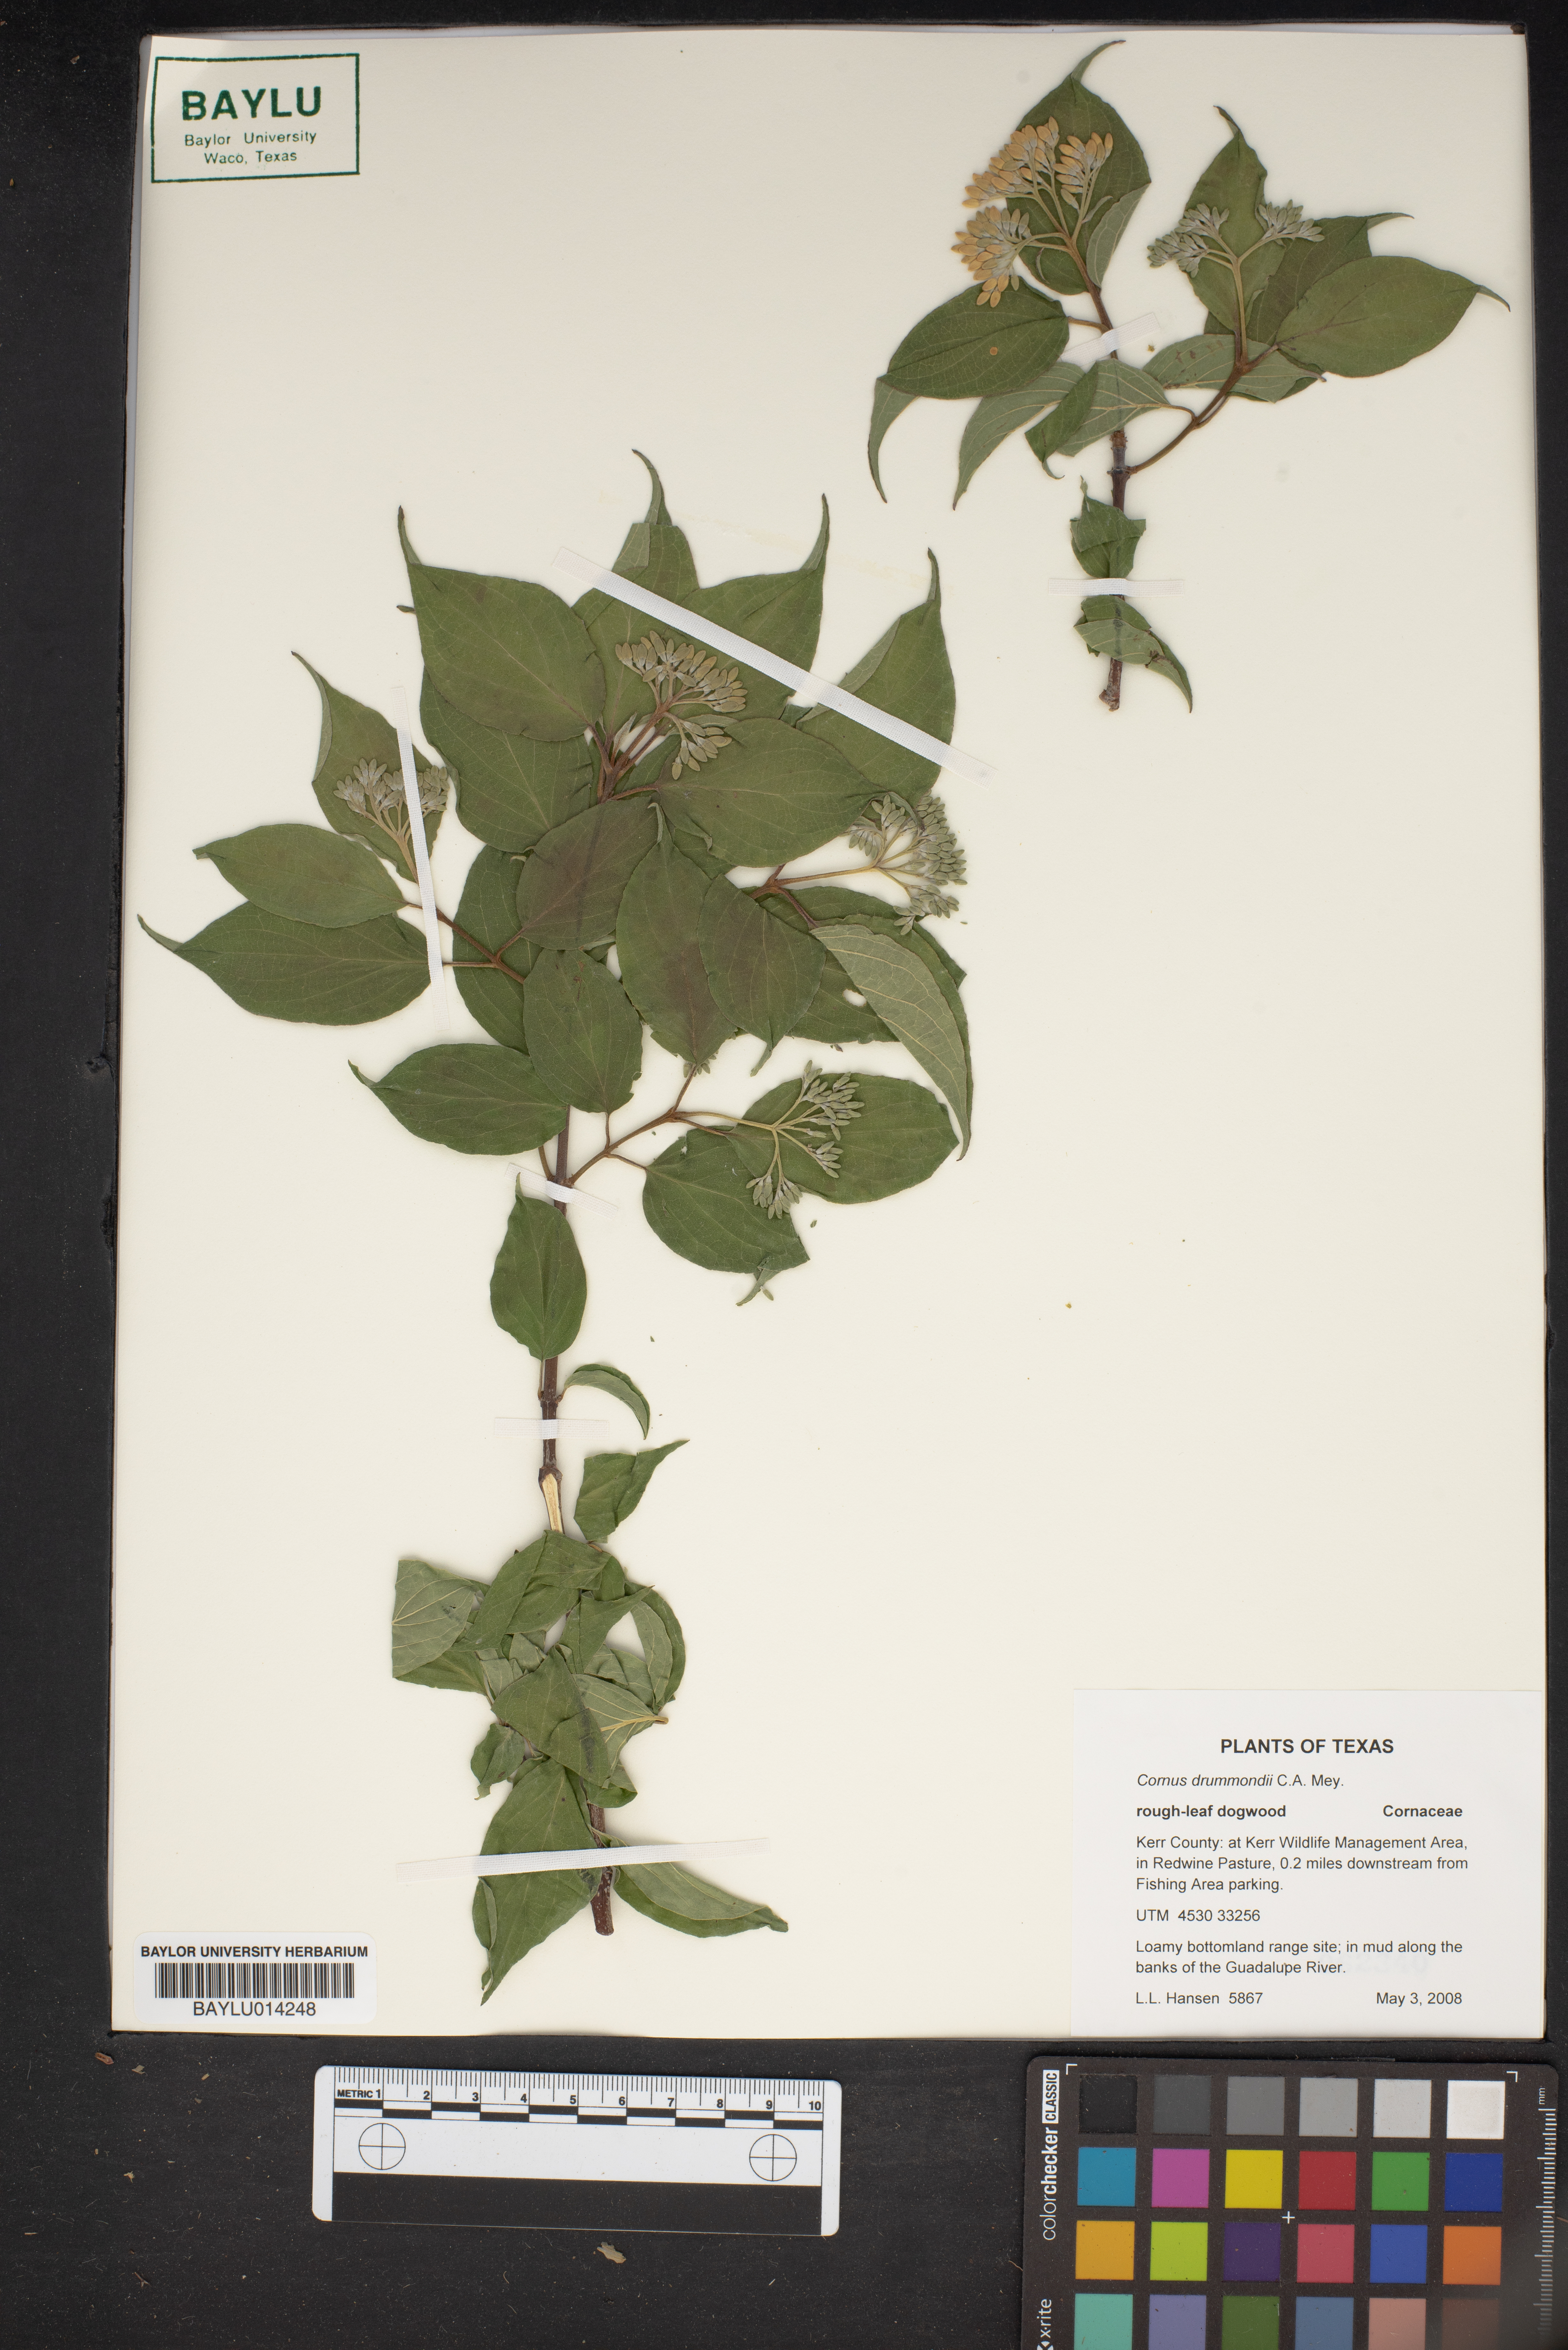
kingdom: Plantae
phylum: Tracheophyta
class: Magnoliopsida
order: Cornales
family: Cornaceae
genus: Cornus
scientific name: Cornus drummondii
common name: Rough-leaf dogwood
